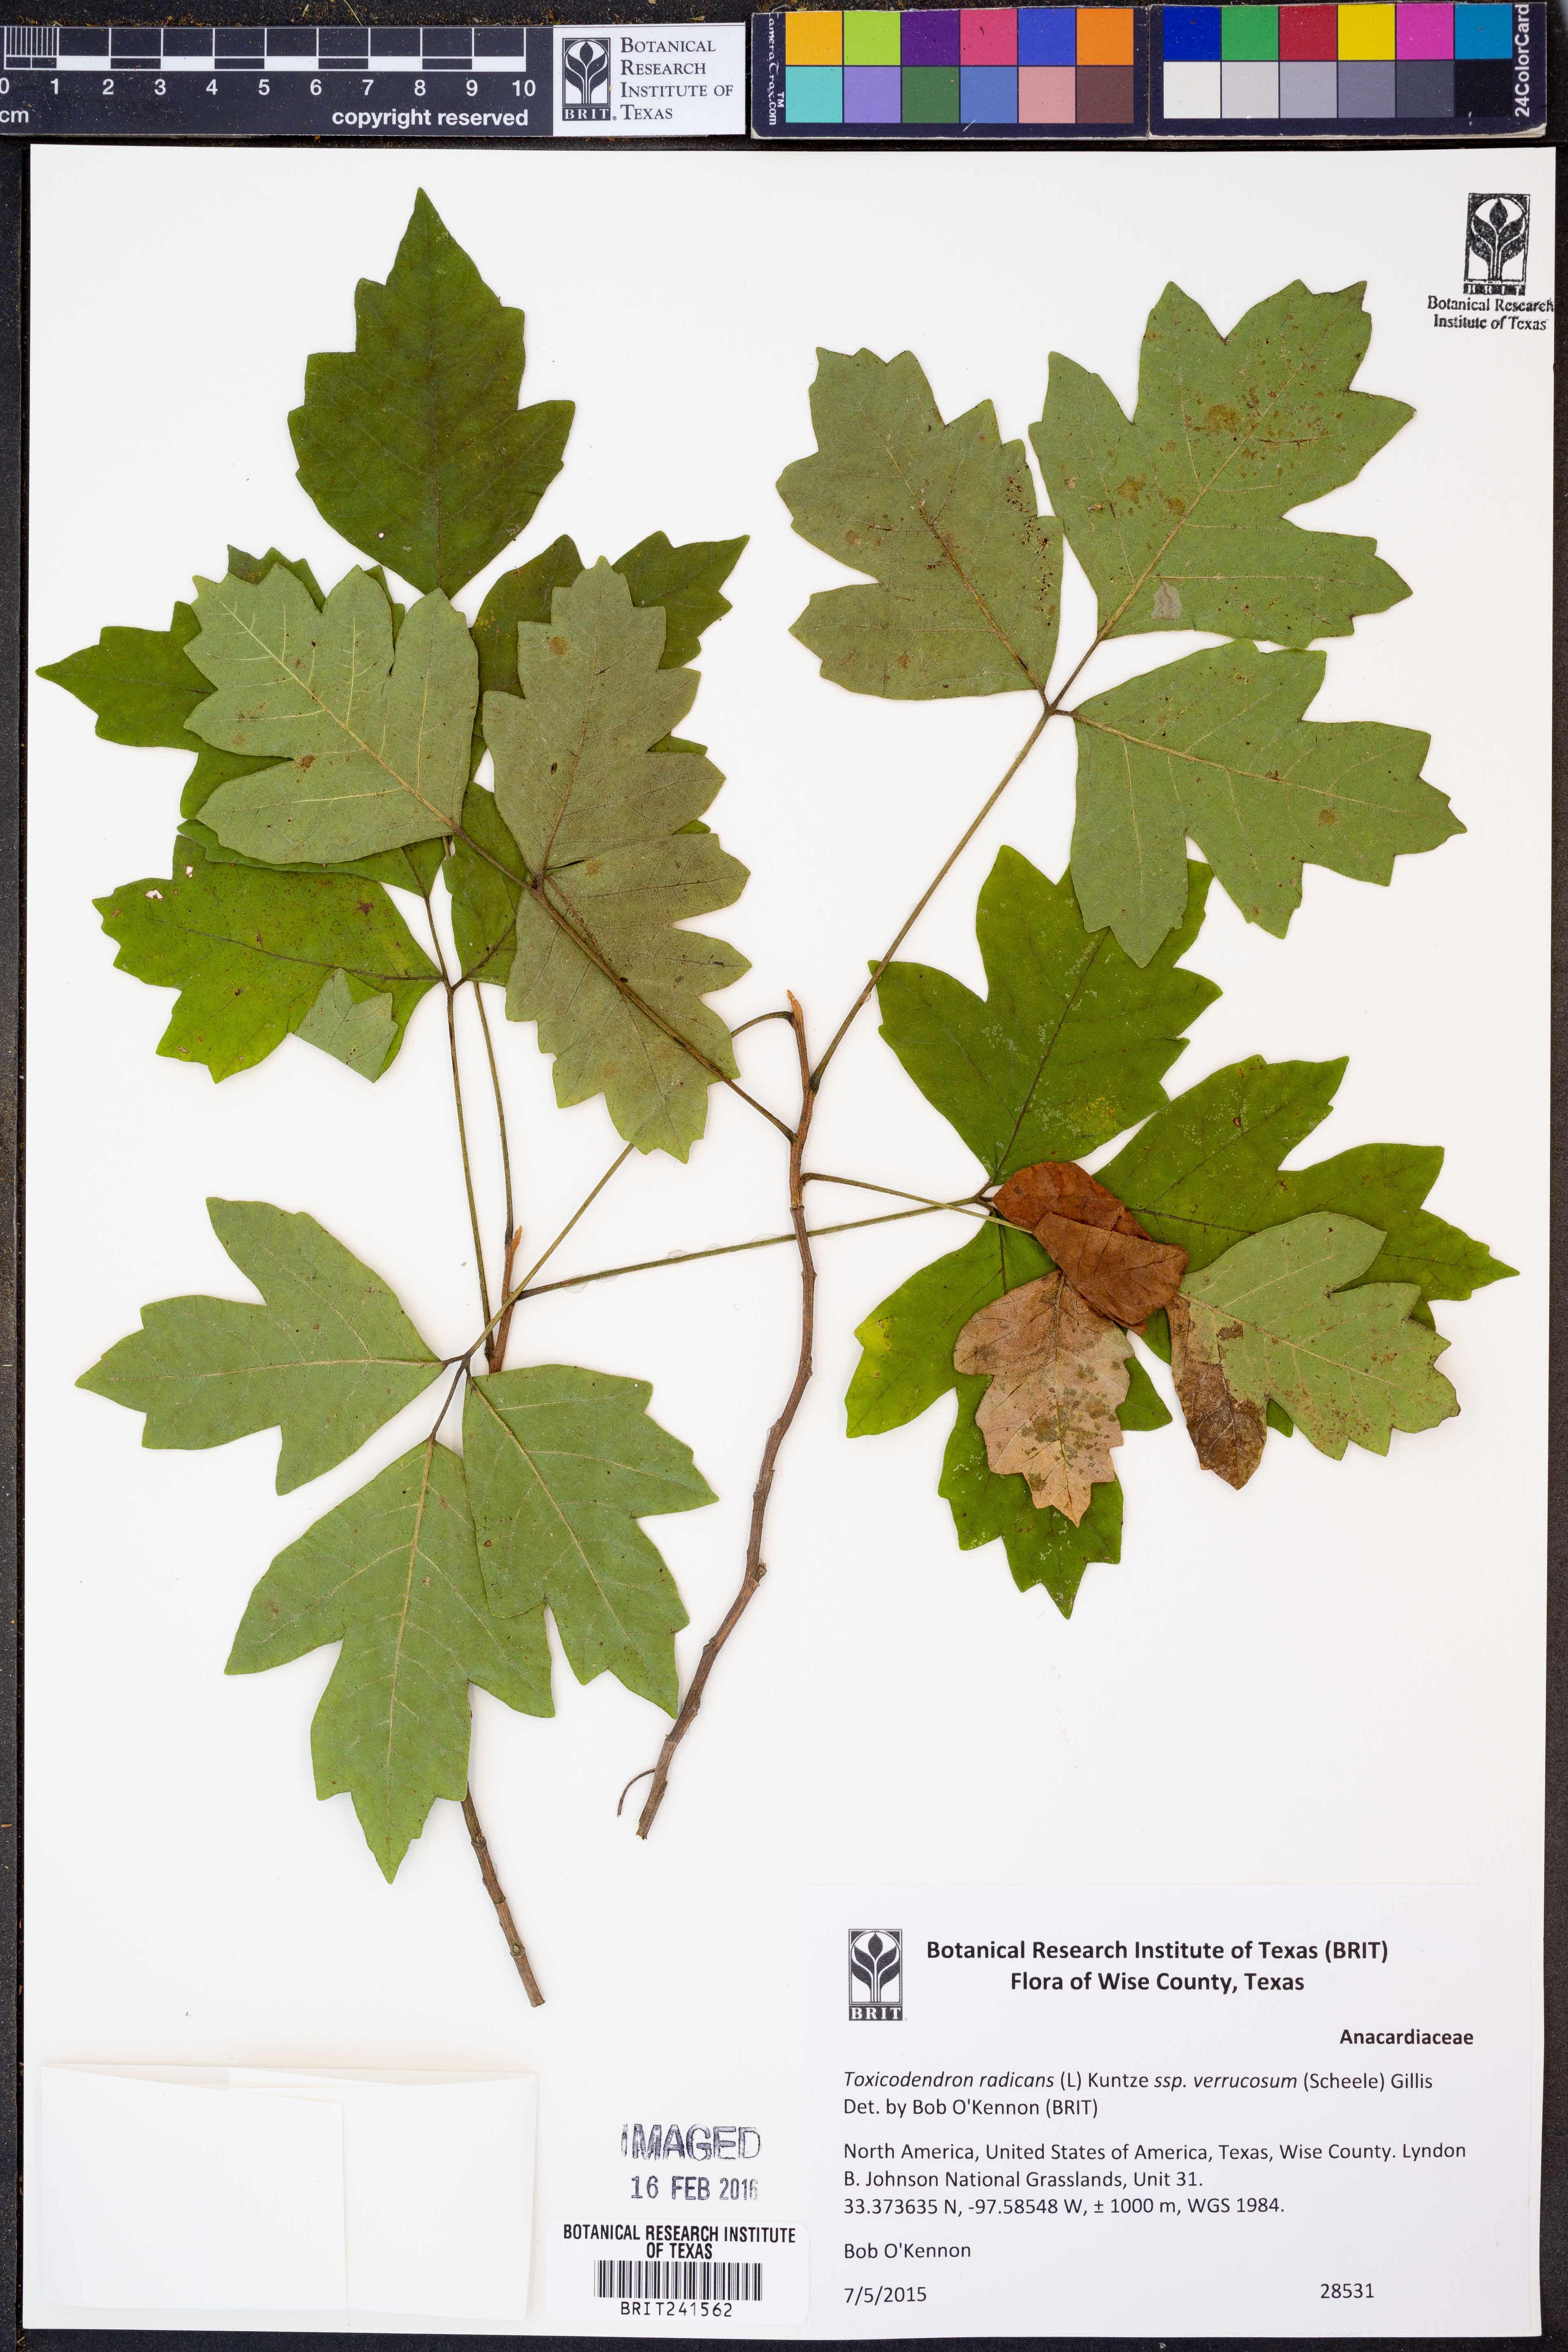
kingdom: Plantae
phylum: Tracheophyta
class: Magnoliopsida
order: Sapindales
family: Anacardiaceae
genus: Toxicodendron
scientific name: Toxicodendron radicans
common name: Poison ivy
